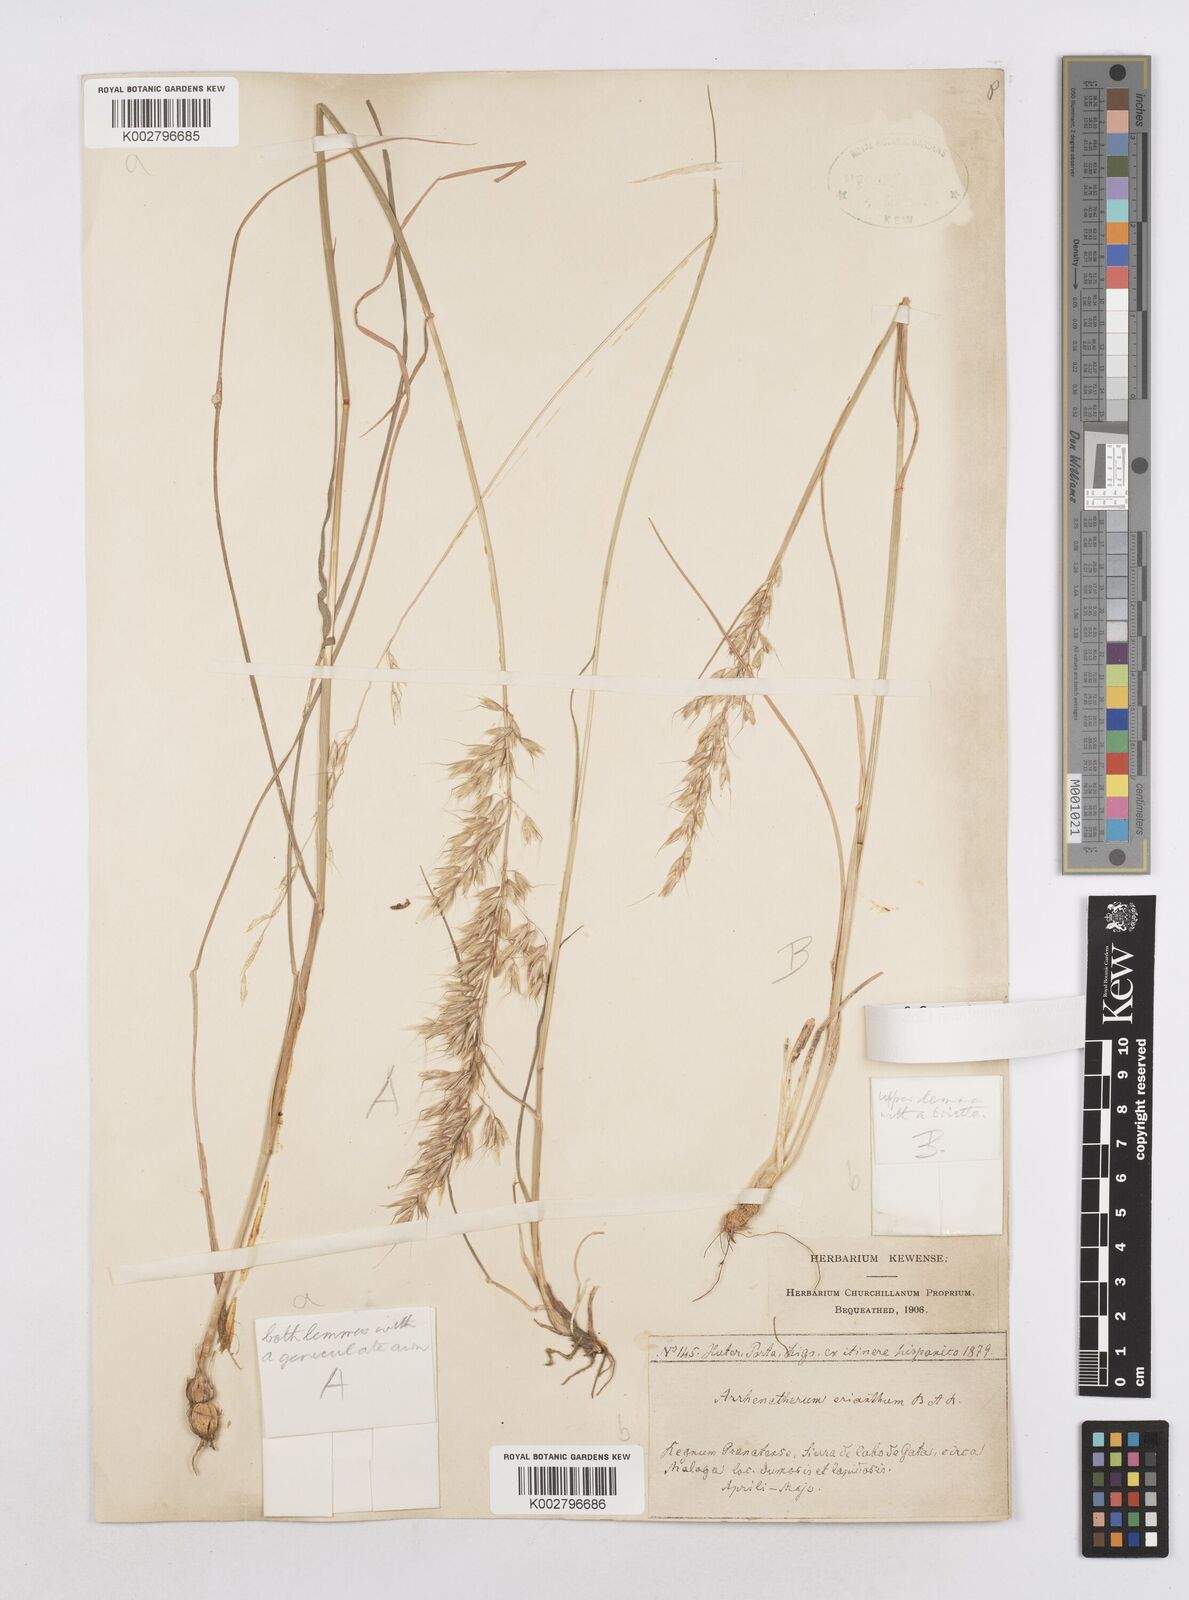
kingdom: Plantae
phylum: Tracheophyta
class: Liliopsida
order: Poales
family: Poaceae
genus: Arrhenatherum
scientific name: Arrhenatherum album
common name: Tall oat grass
